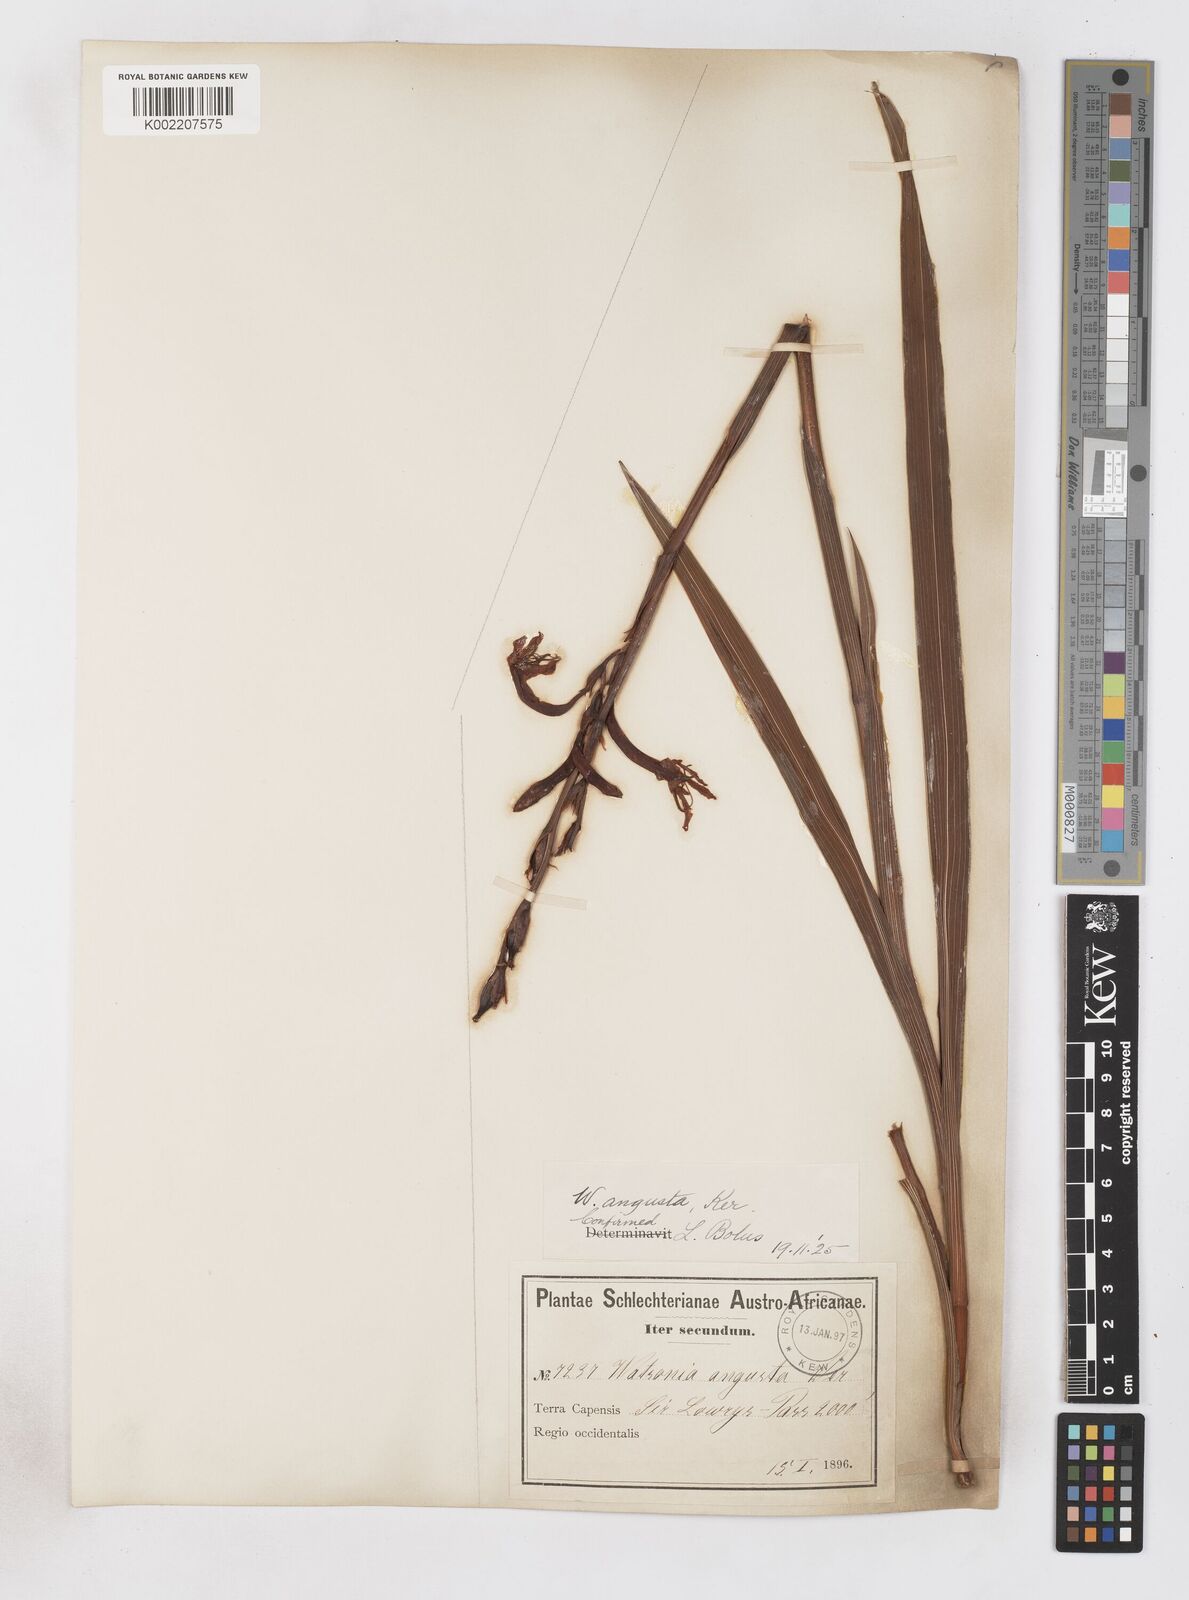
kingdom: Plantae
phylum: Tracheophyta
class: Liliopsida
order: Asparagales
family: Iridaceae
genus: Watsonia
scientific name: Watsonia
